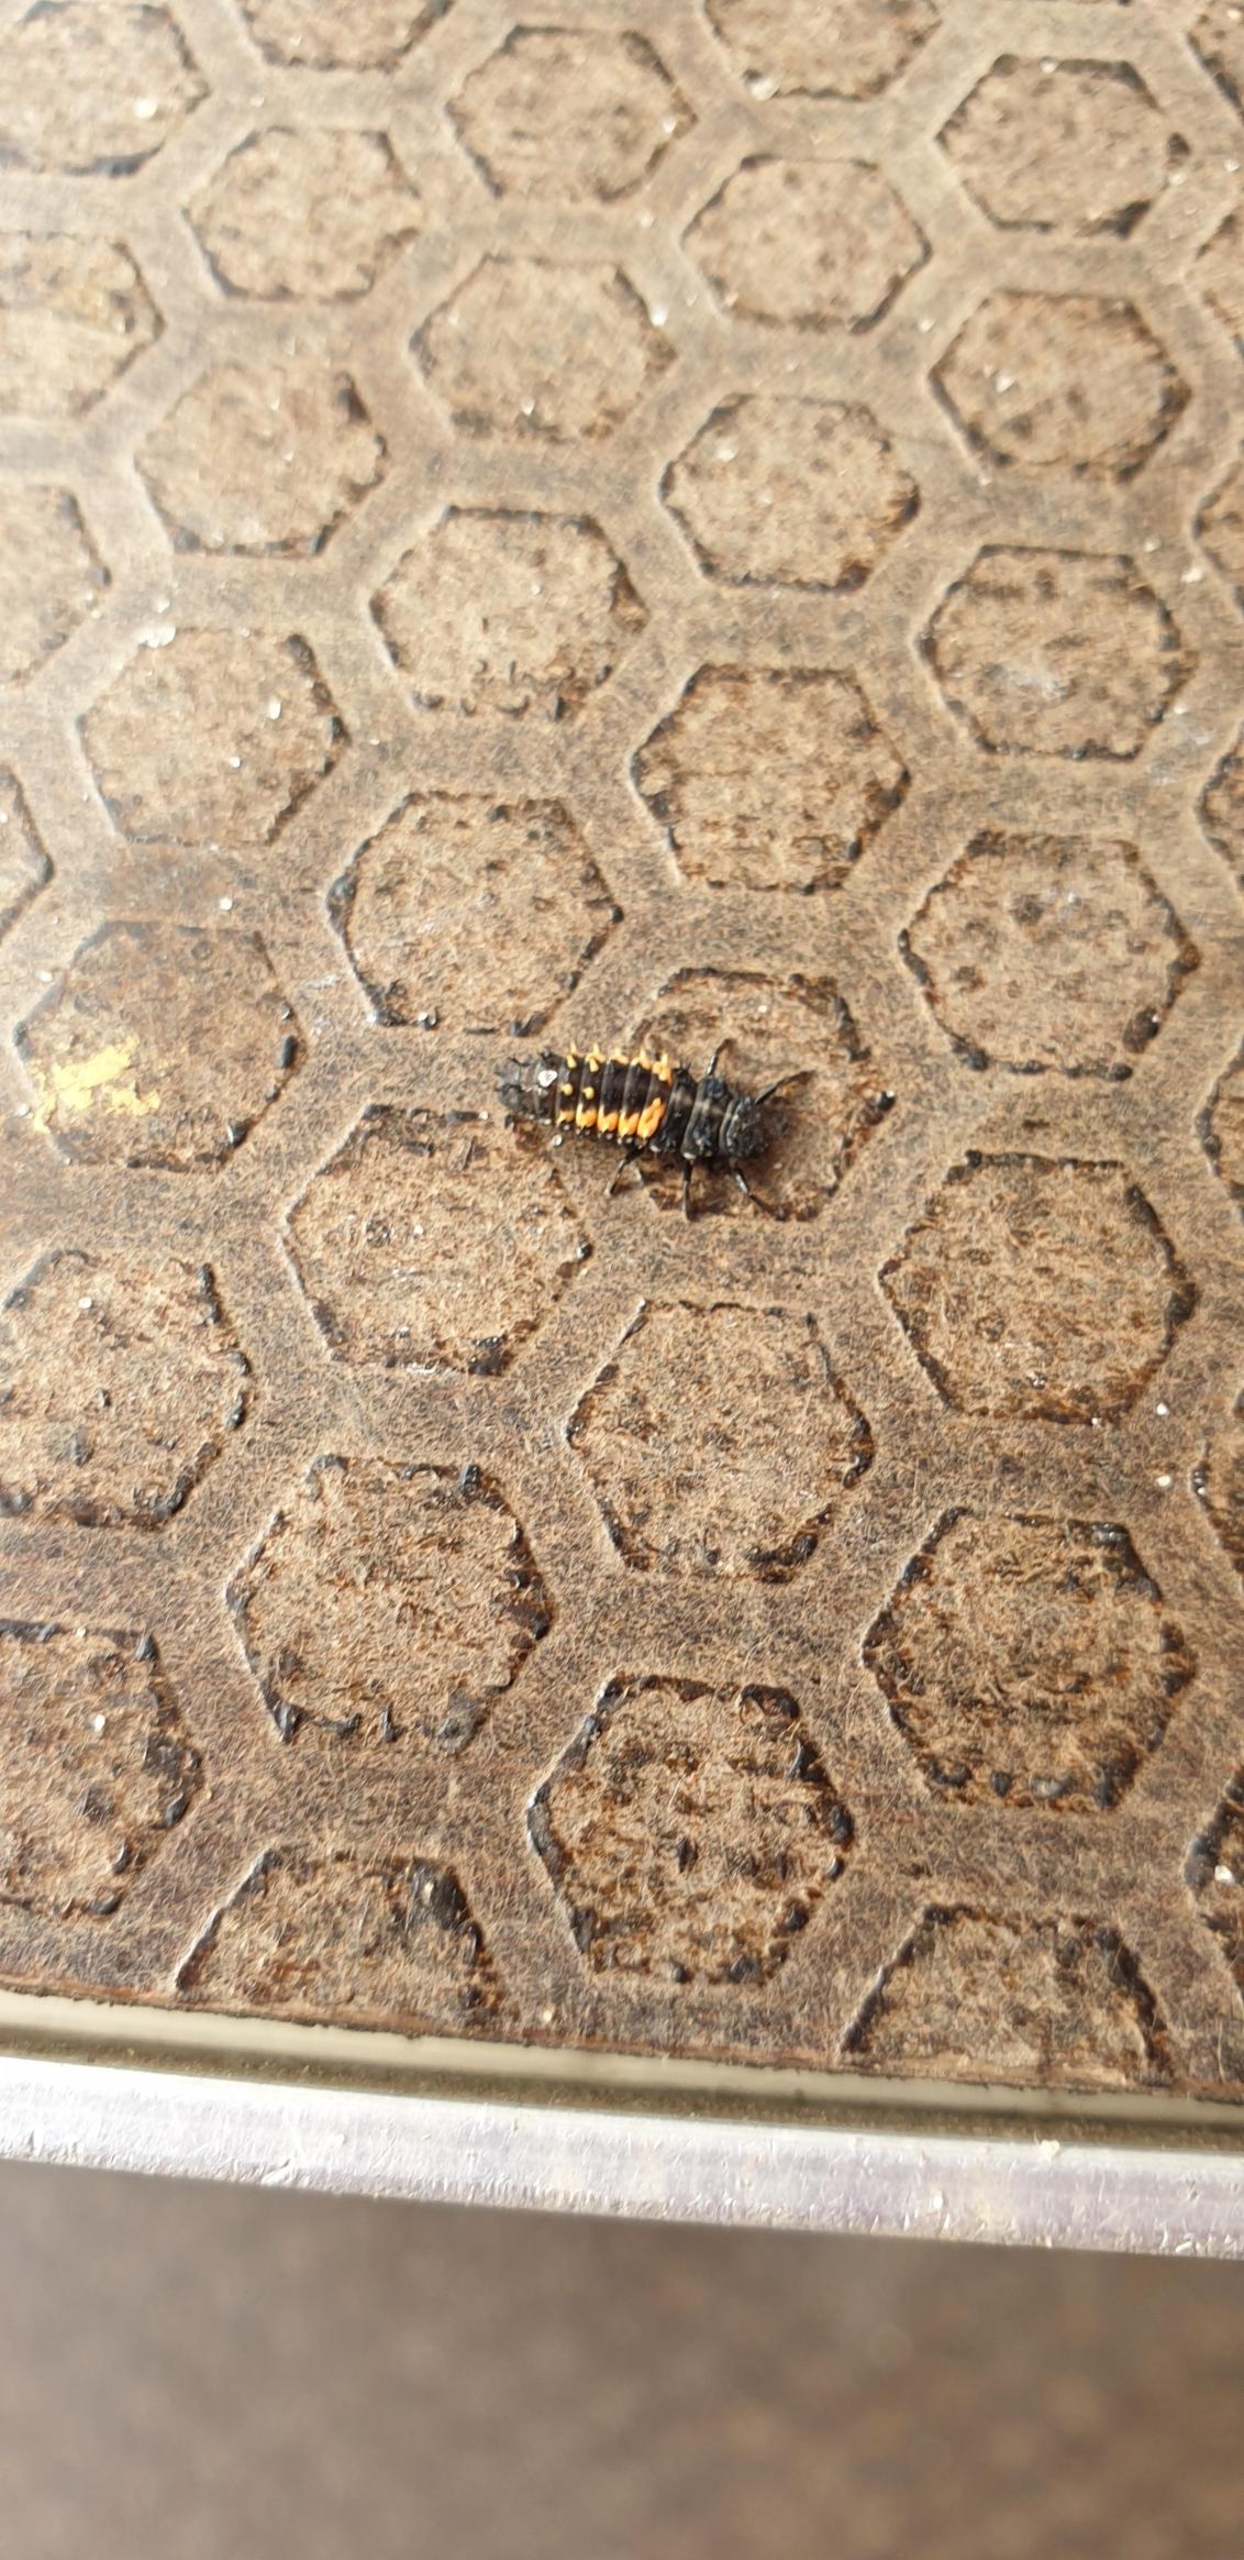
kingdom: Animalia
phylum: Arthropoda
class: Insecta
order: Coleoptera
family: Coccinellidae
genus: Harmonia
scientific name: Harmonia axyridis
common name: Harlekinmariehøne
